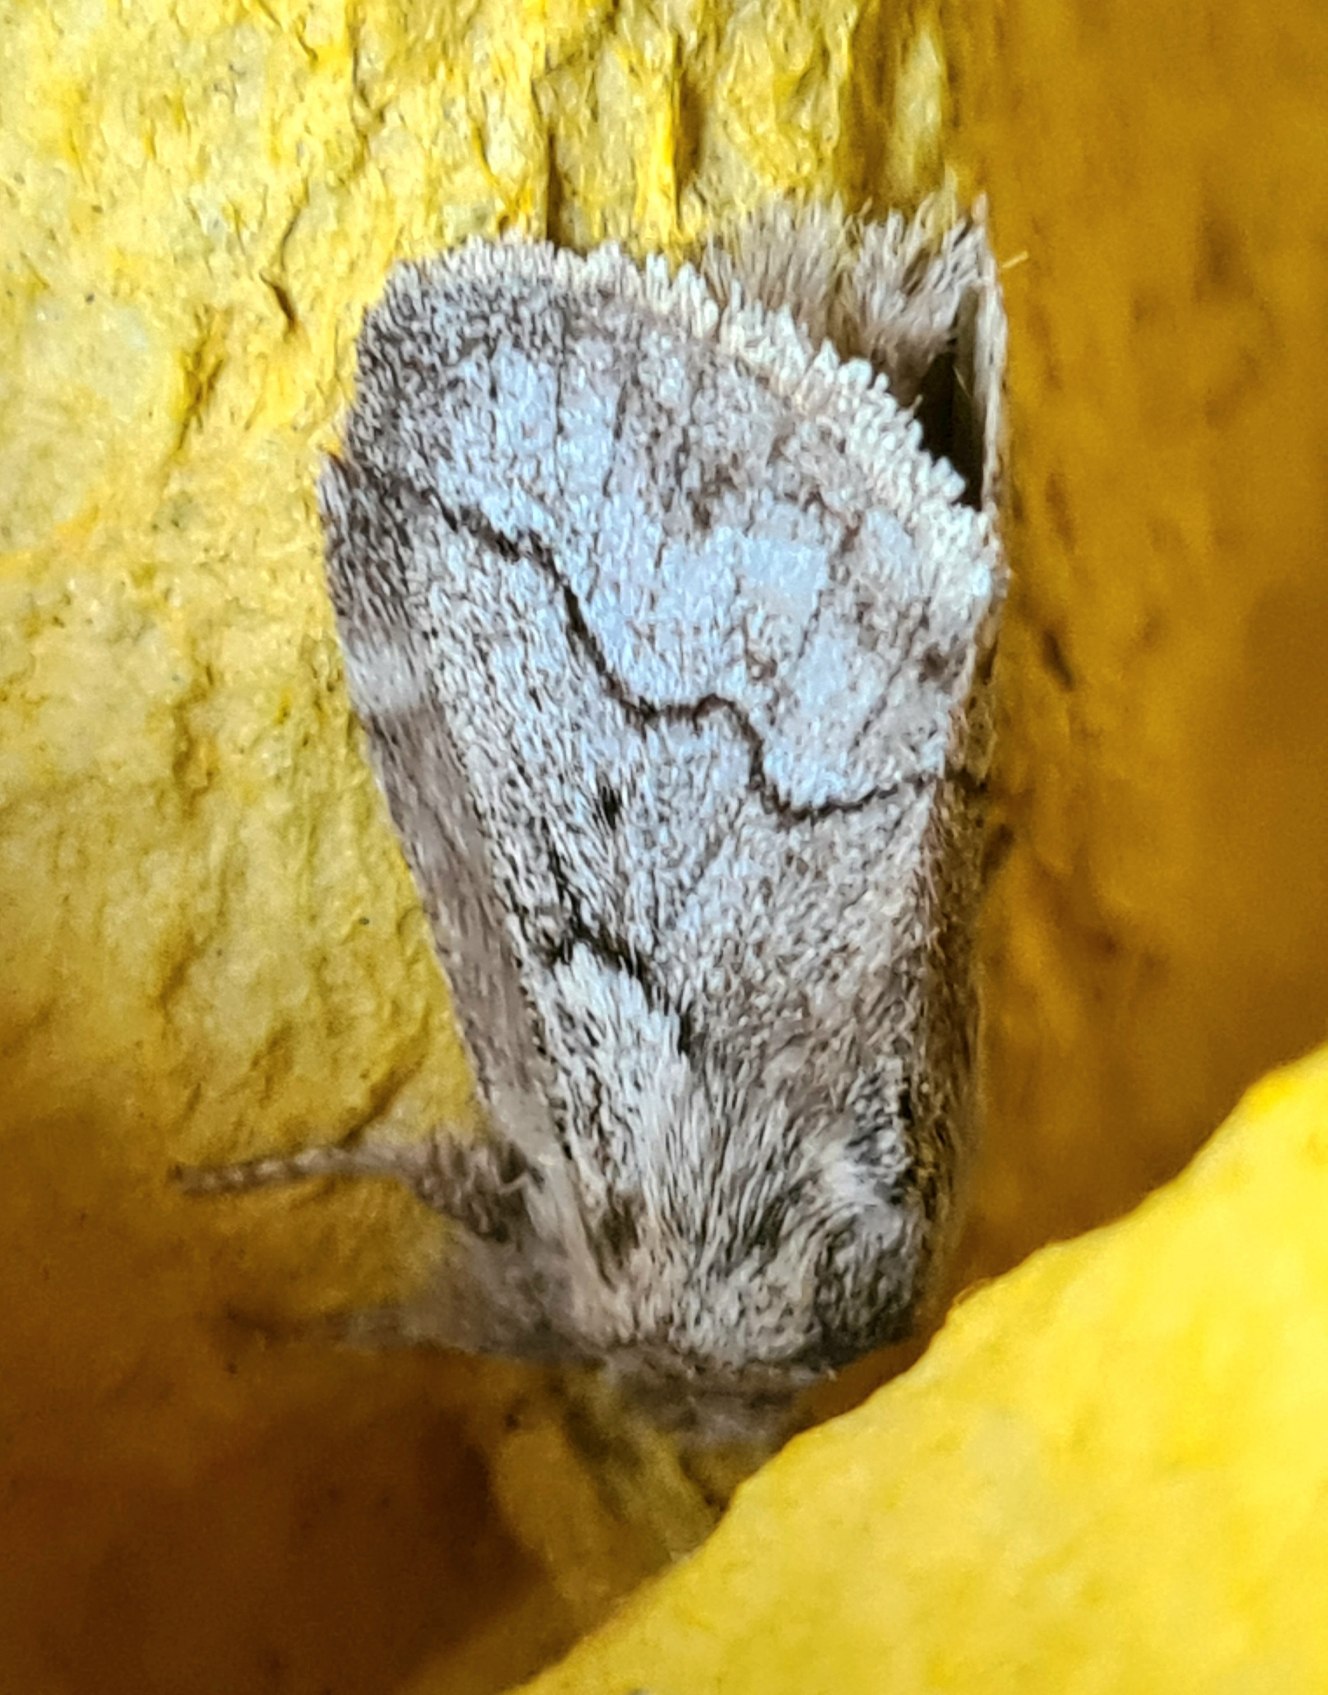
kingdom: Animalia
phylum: Arthropoda
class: Insecta
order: Lepidoptera
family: Lasiocampidae
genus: Trichiura
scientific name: Trichiura crataegi
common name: Tjørnespinder
